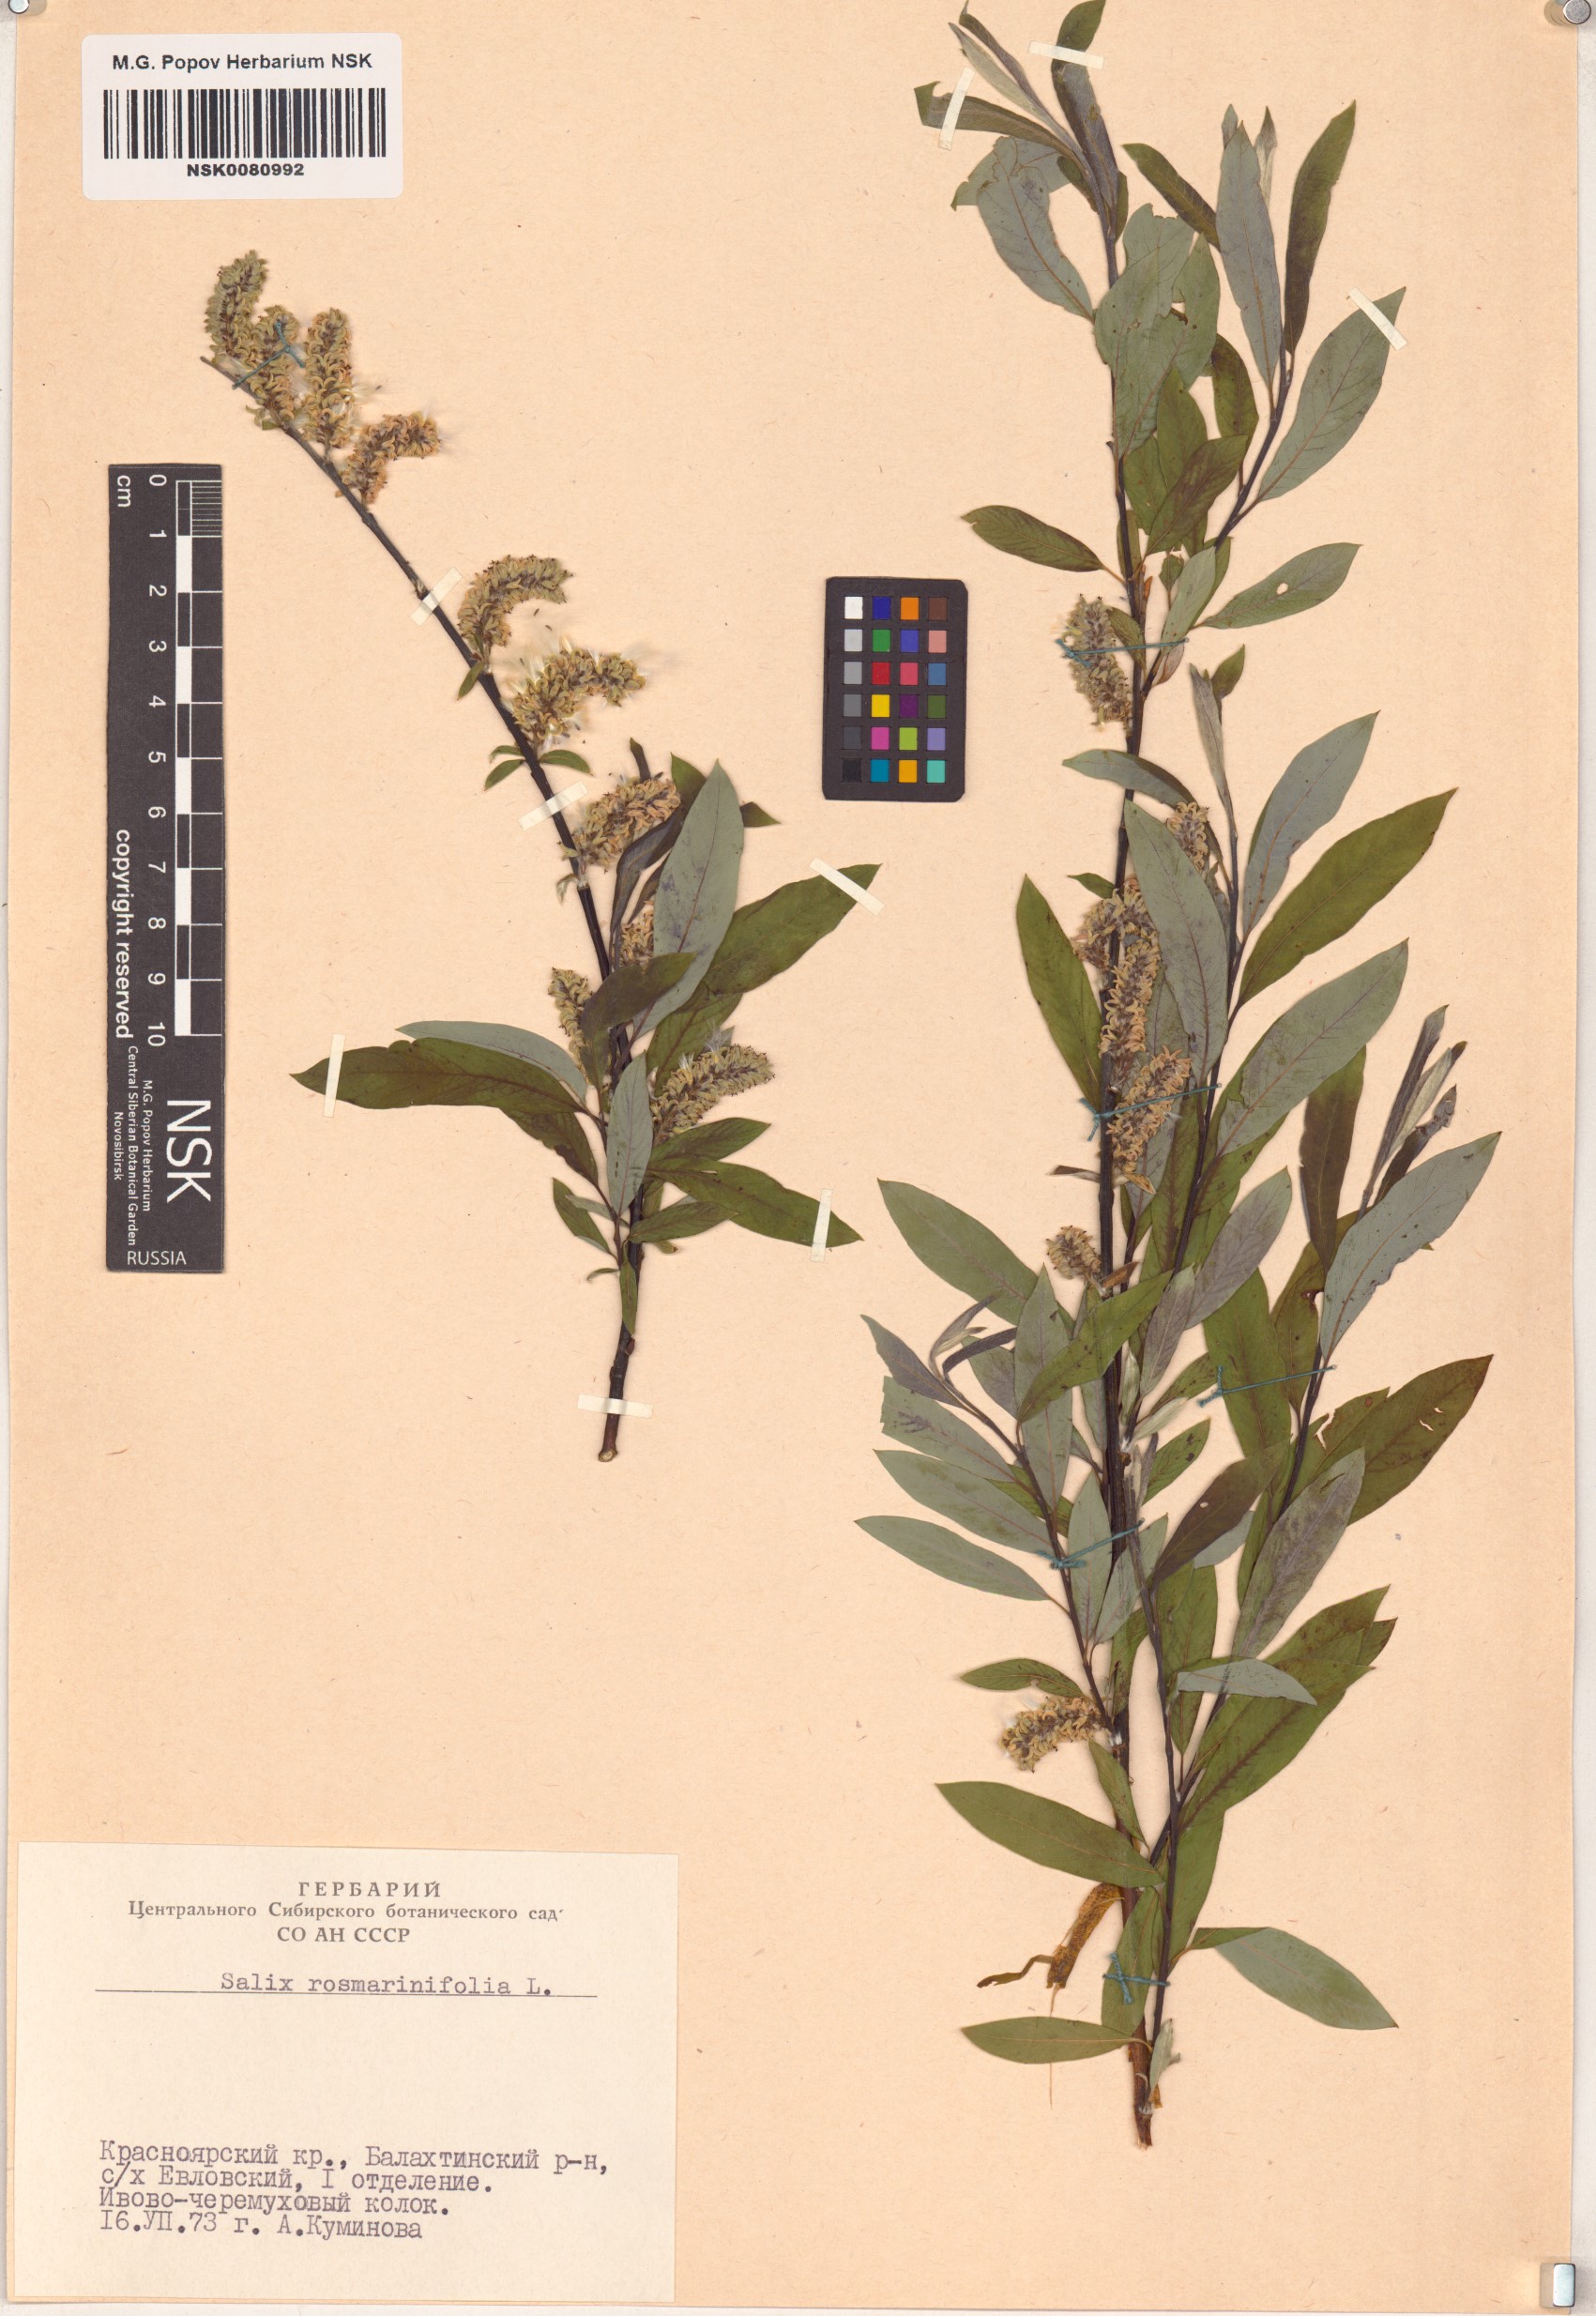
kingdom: Plantae
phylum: Tracheophyta
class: Magnoliopsida
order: Malpighiales
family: Salicaceae
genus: Salix
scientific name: Salix rosmarinifolia
